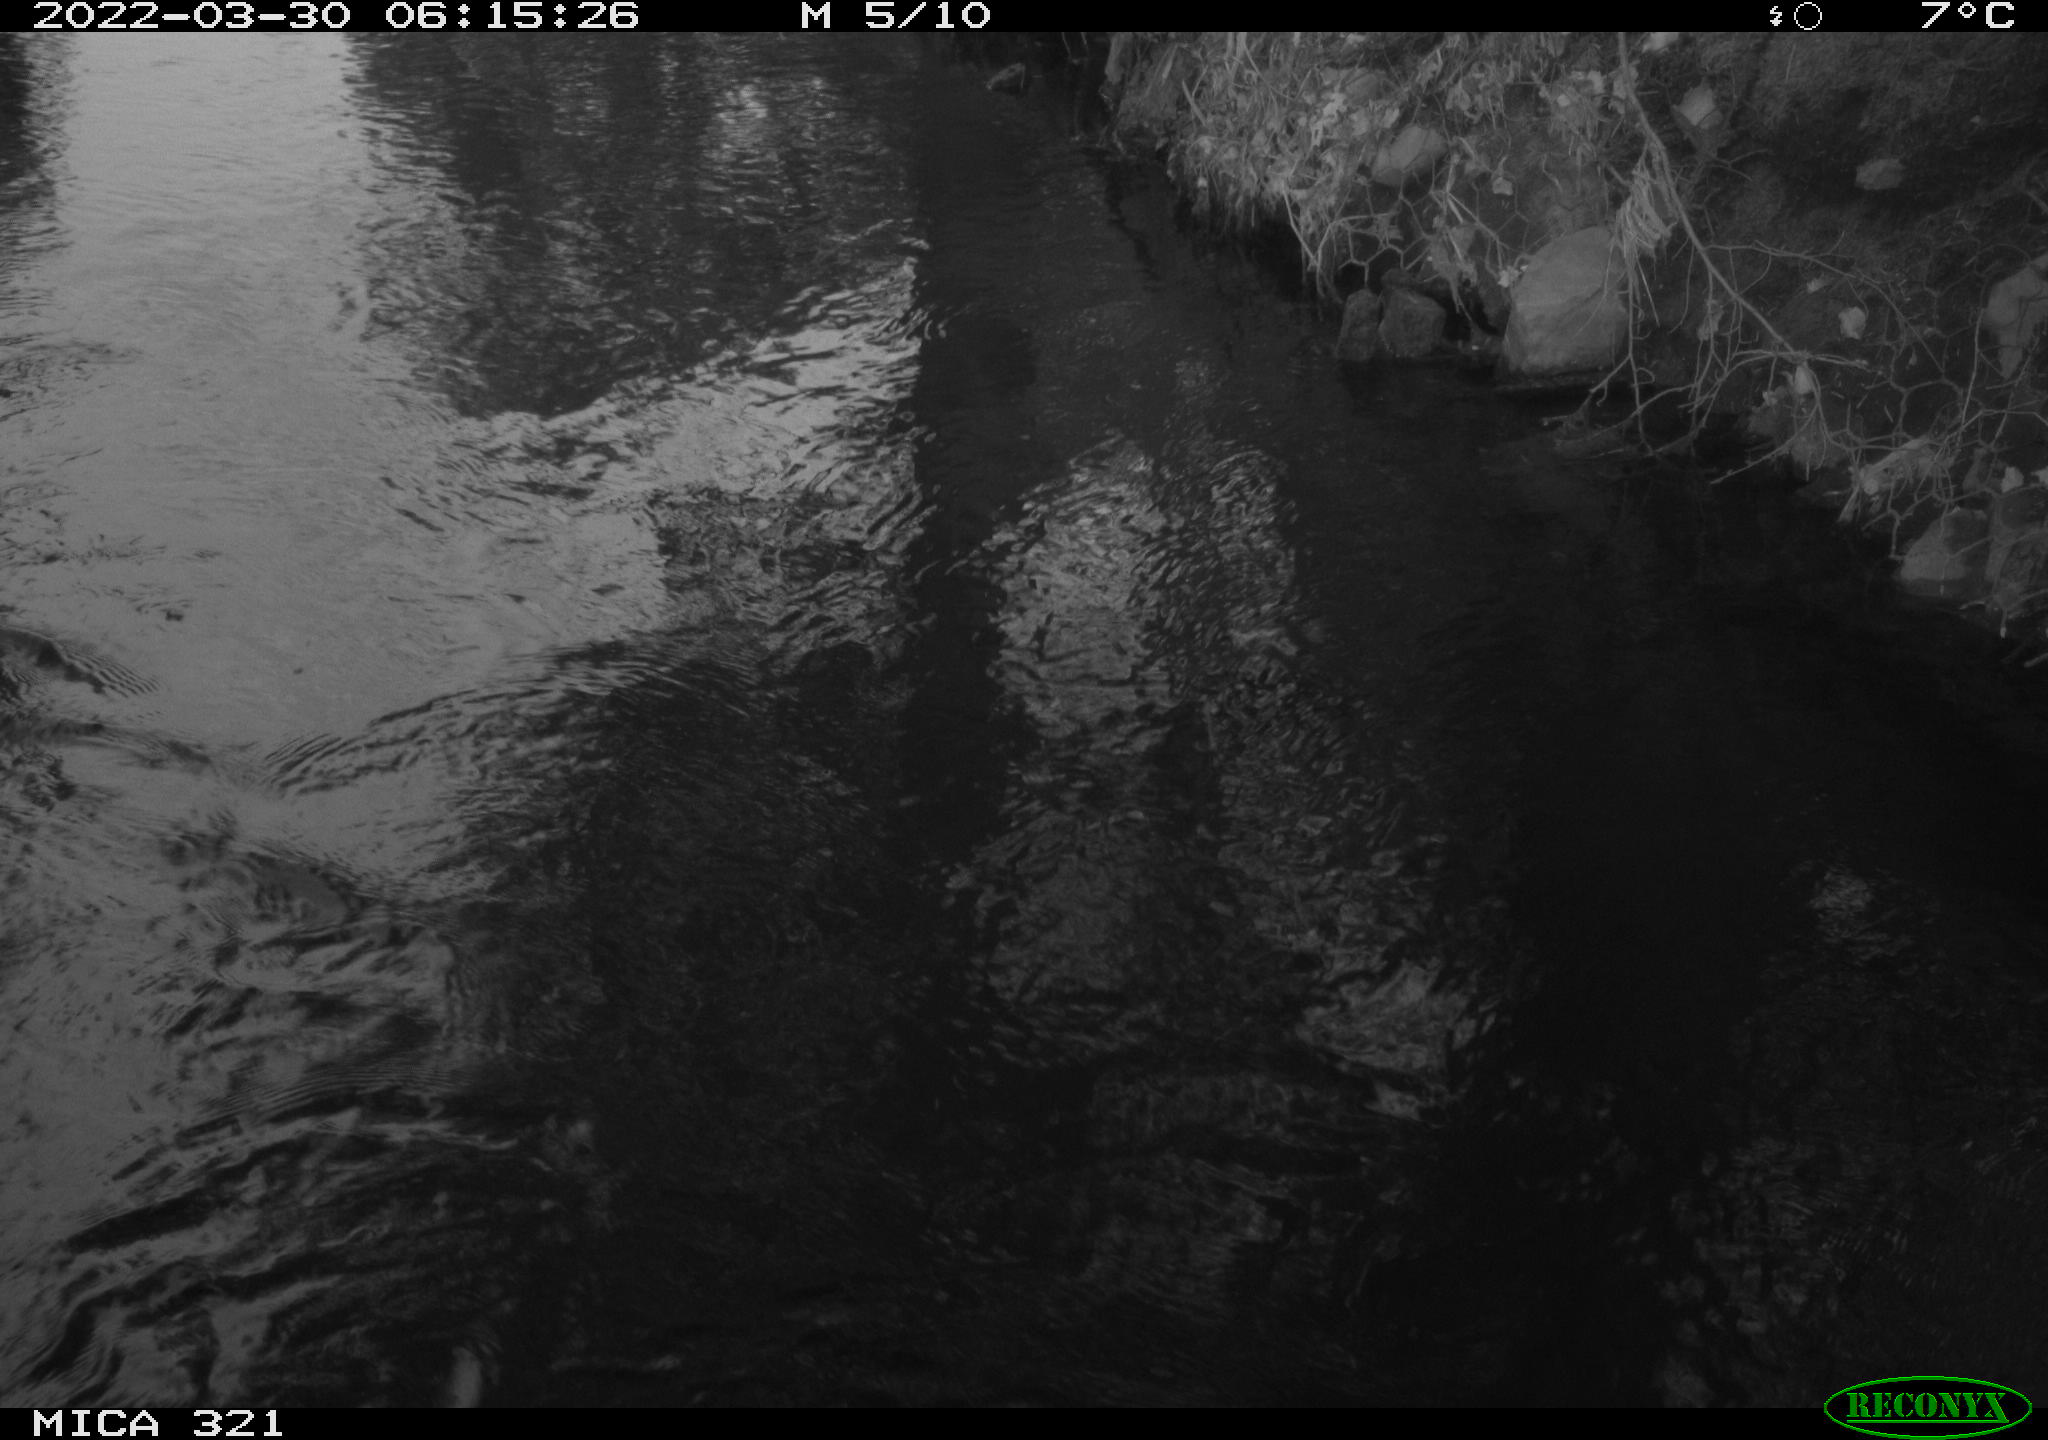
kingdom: Animalia
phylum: Chordata
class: Aves
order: Anseriformes
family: Anatidae
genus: Anas
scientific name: Anas platyrhynchos
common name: Mallard
